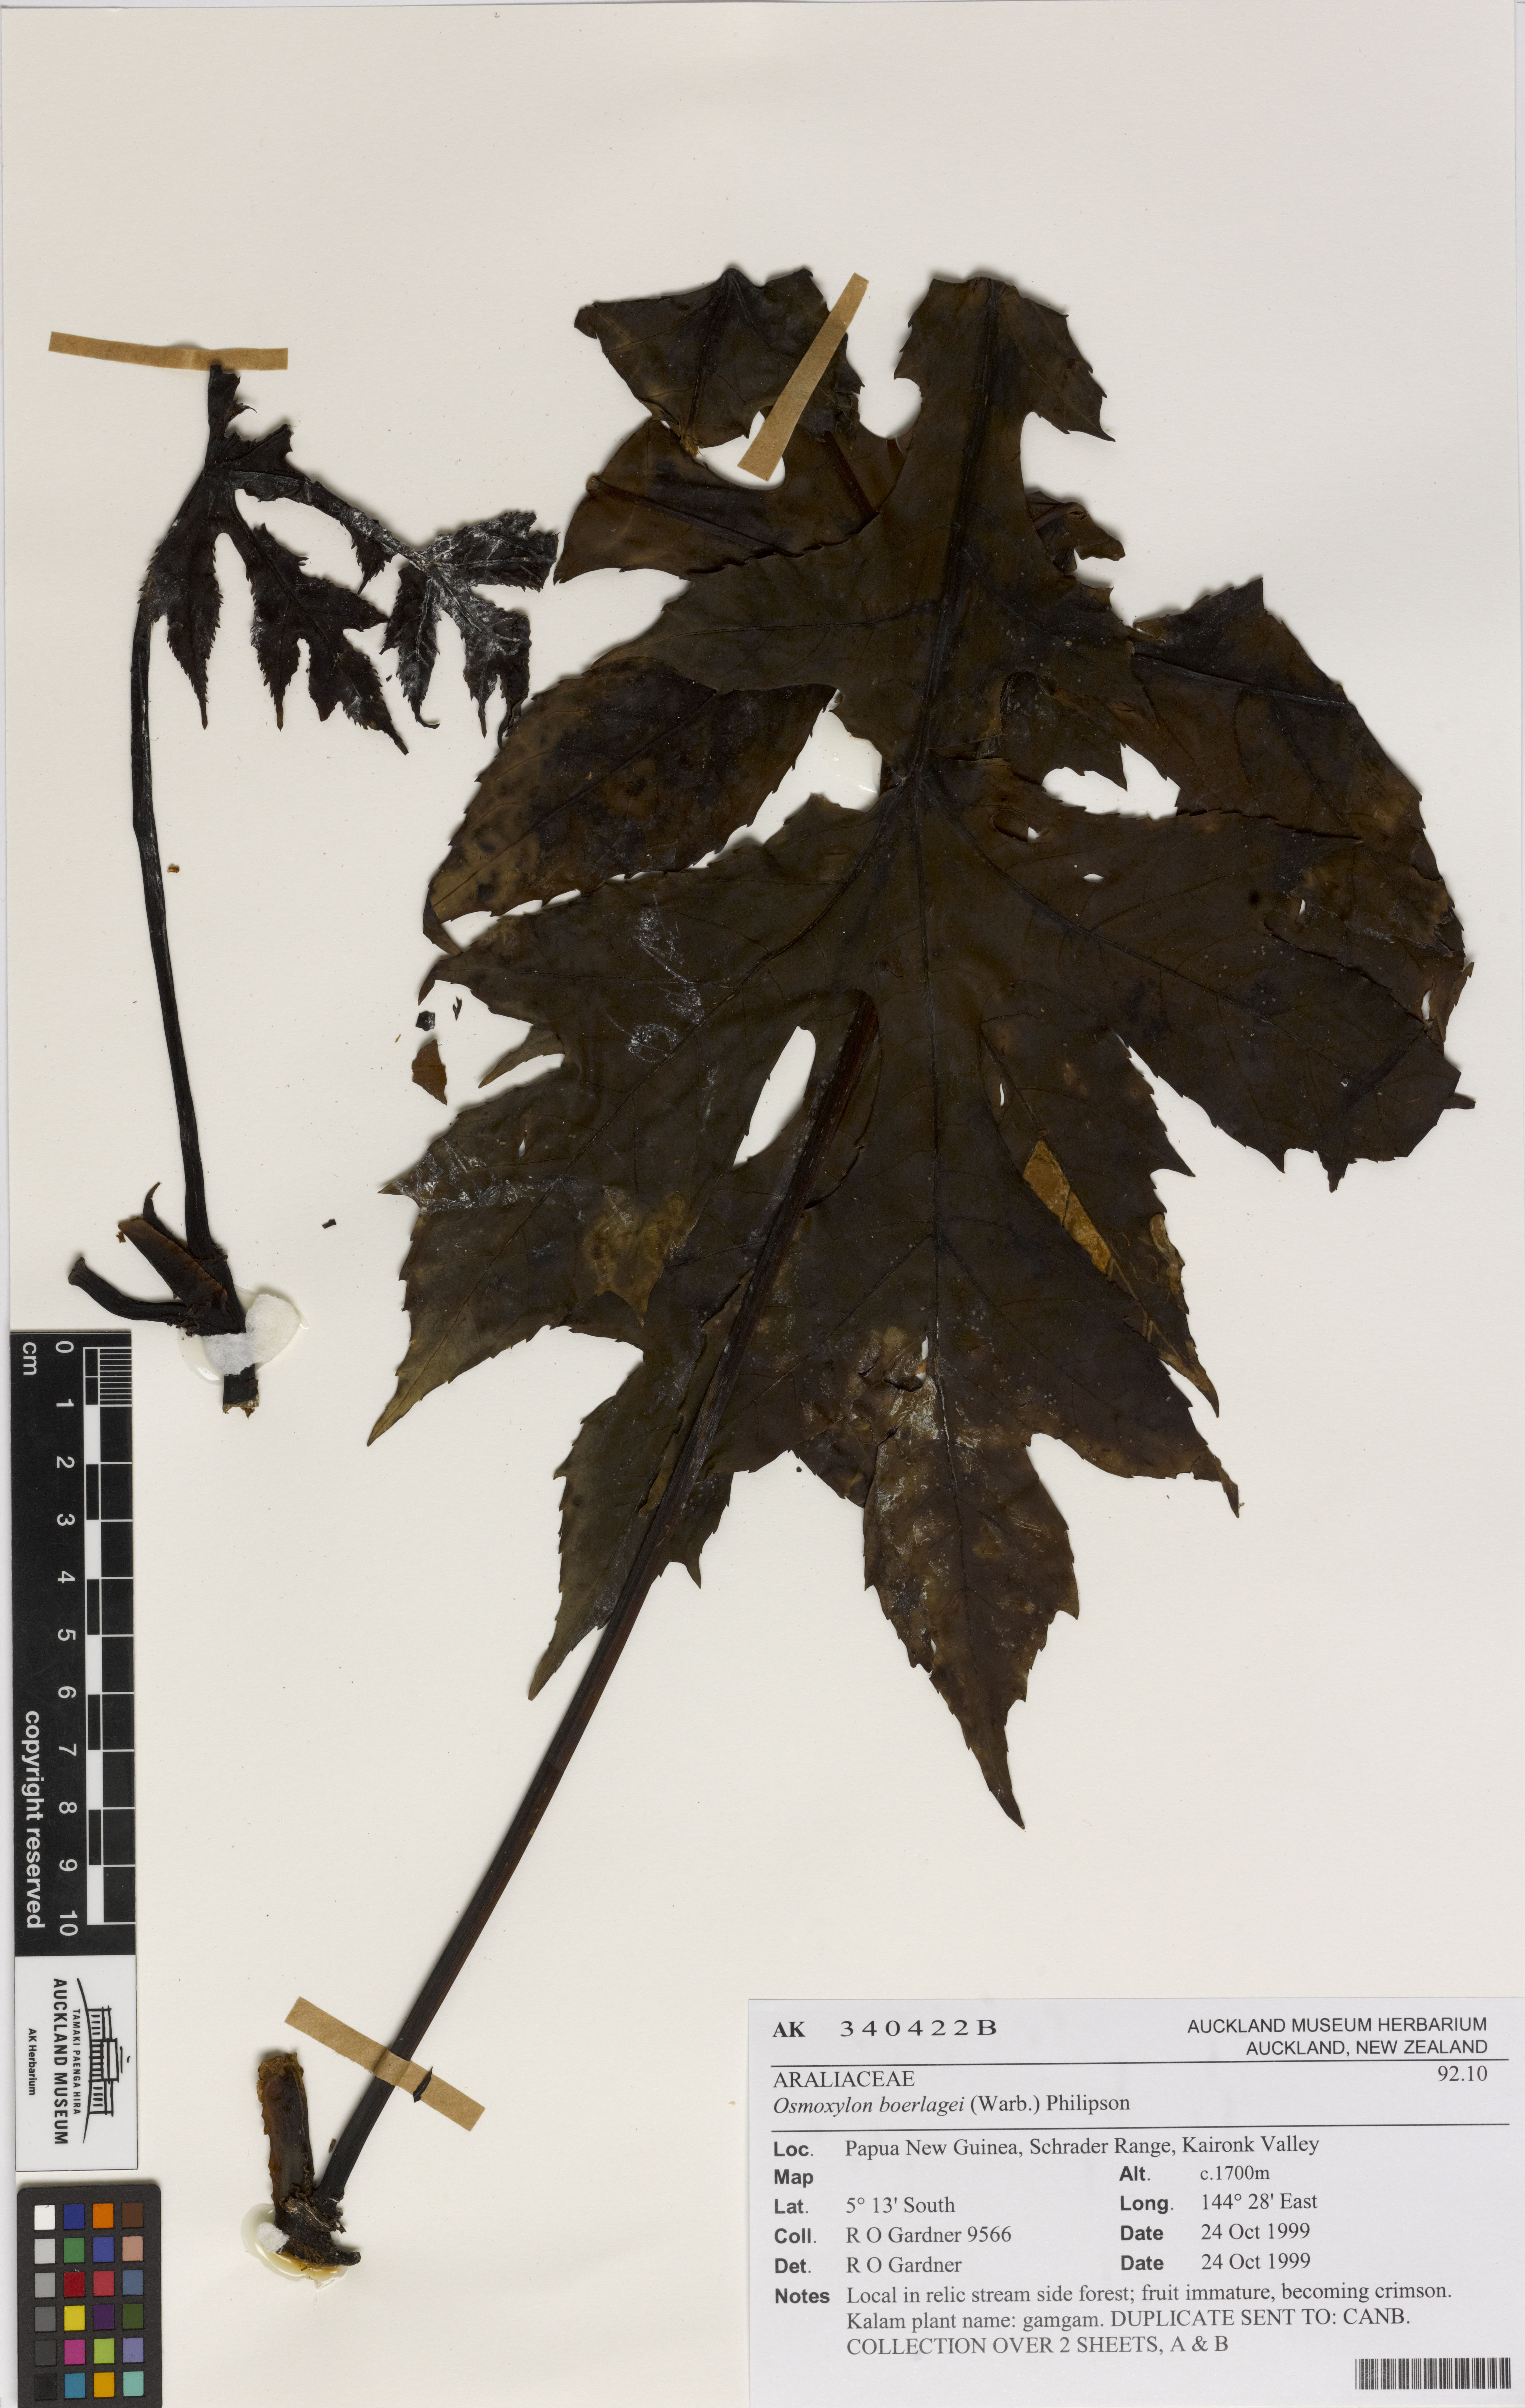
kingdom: Plantae
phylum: Tracheophyta
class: Magnoliopsida
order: Apiales
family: Araliaceae
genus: Osmoxylon
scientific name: Osmoxylon boerlagei
